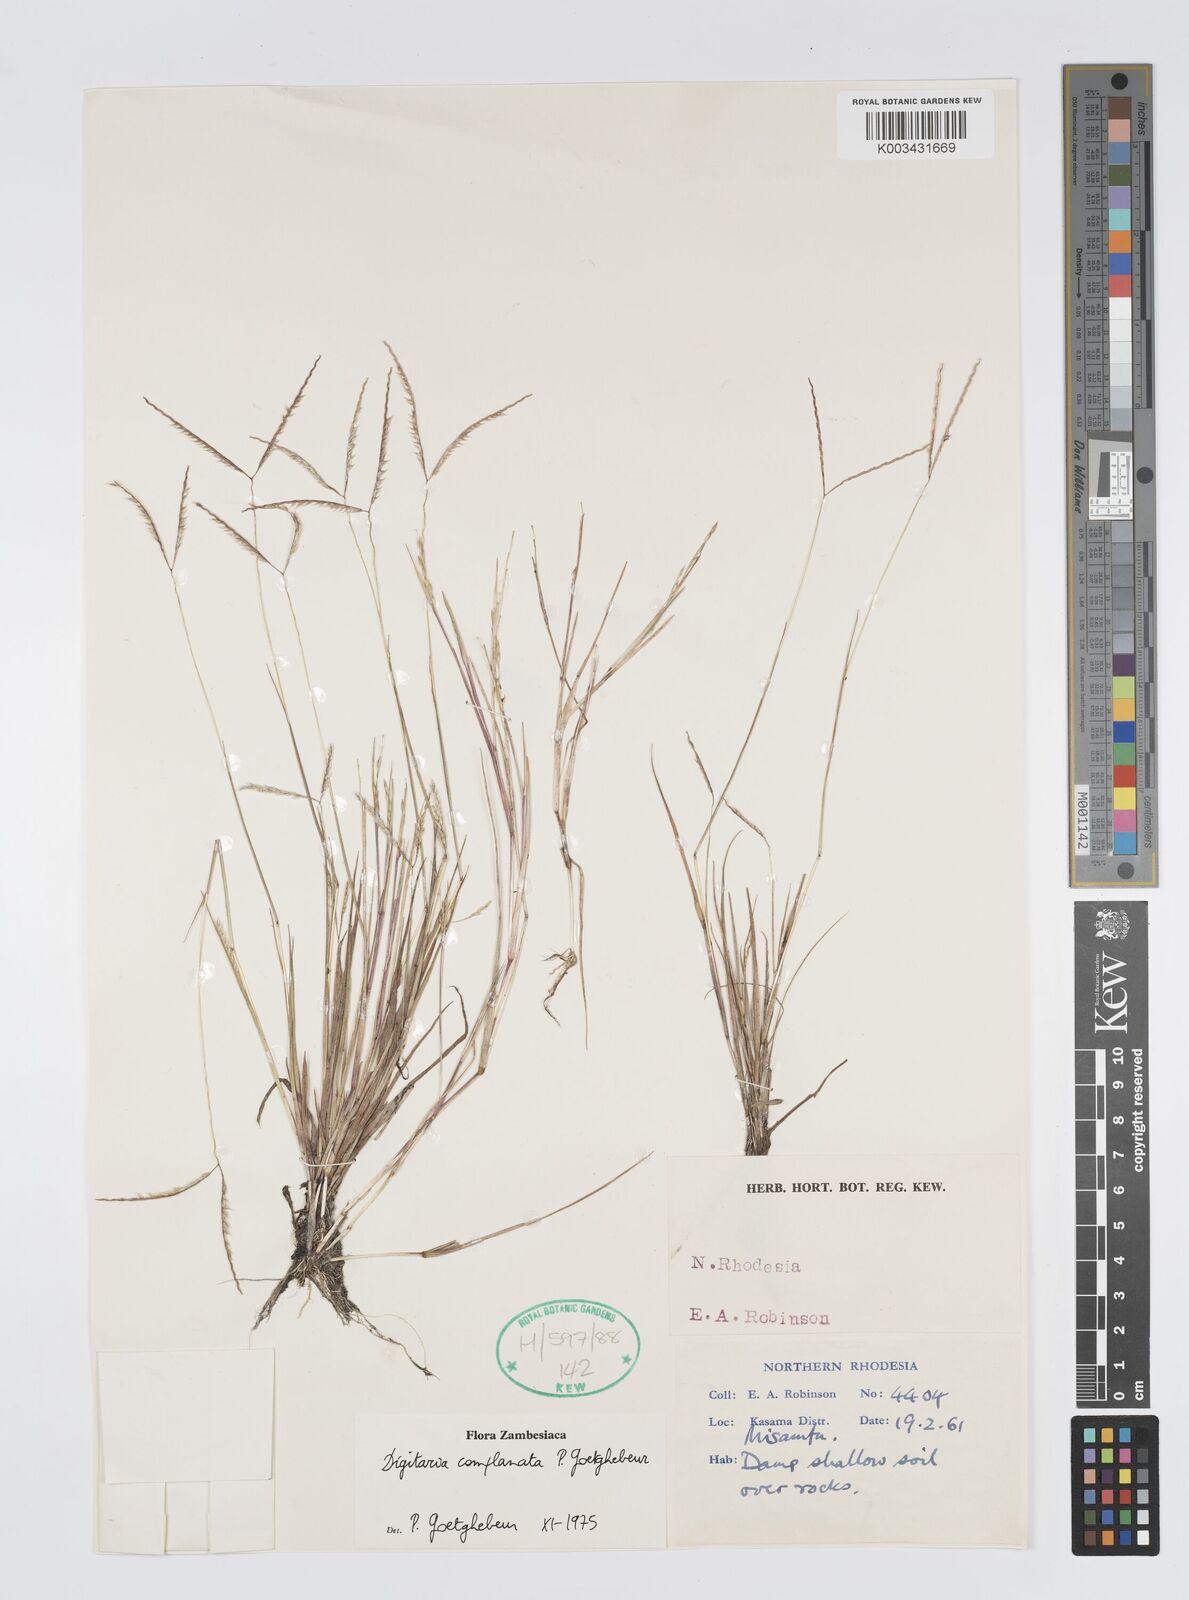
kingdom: Plantae
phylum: Tracheophyta
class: Liliopsida
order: Poales
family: Poaceae
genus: Digitaria
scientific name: Digitaria complanata
